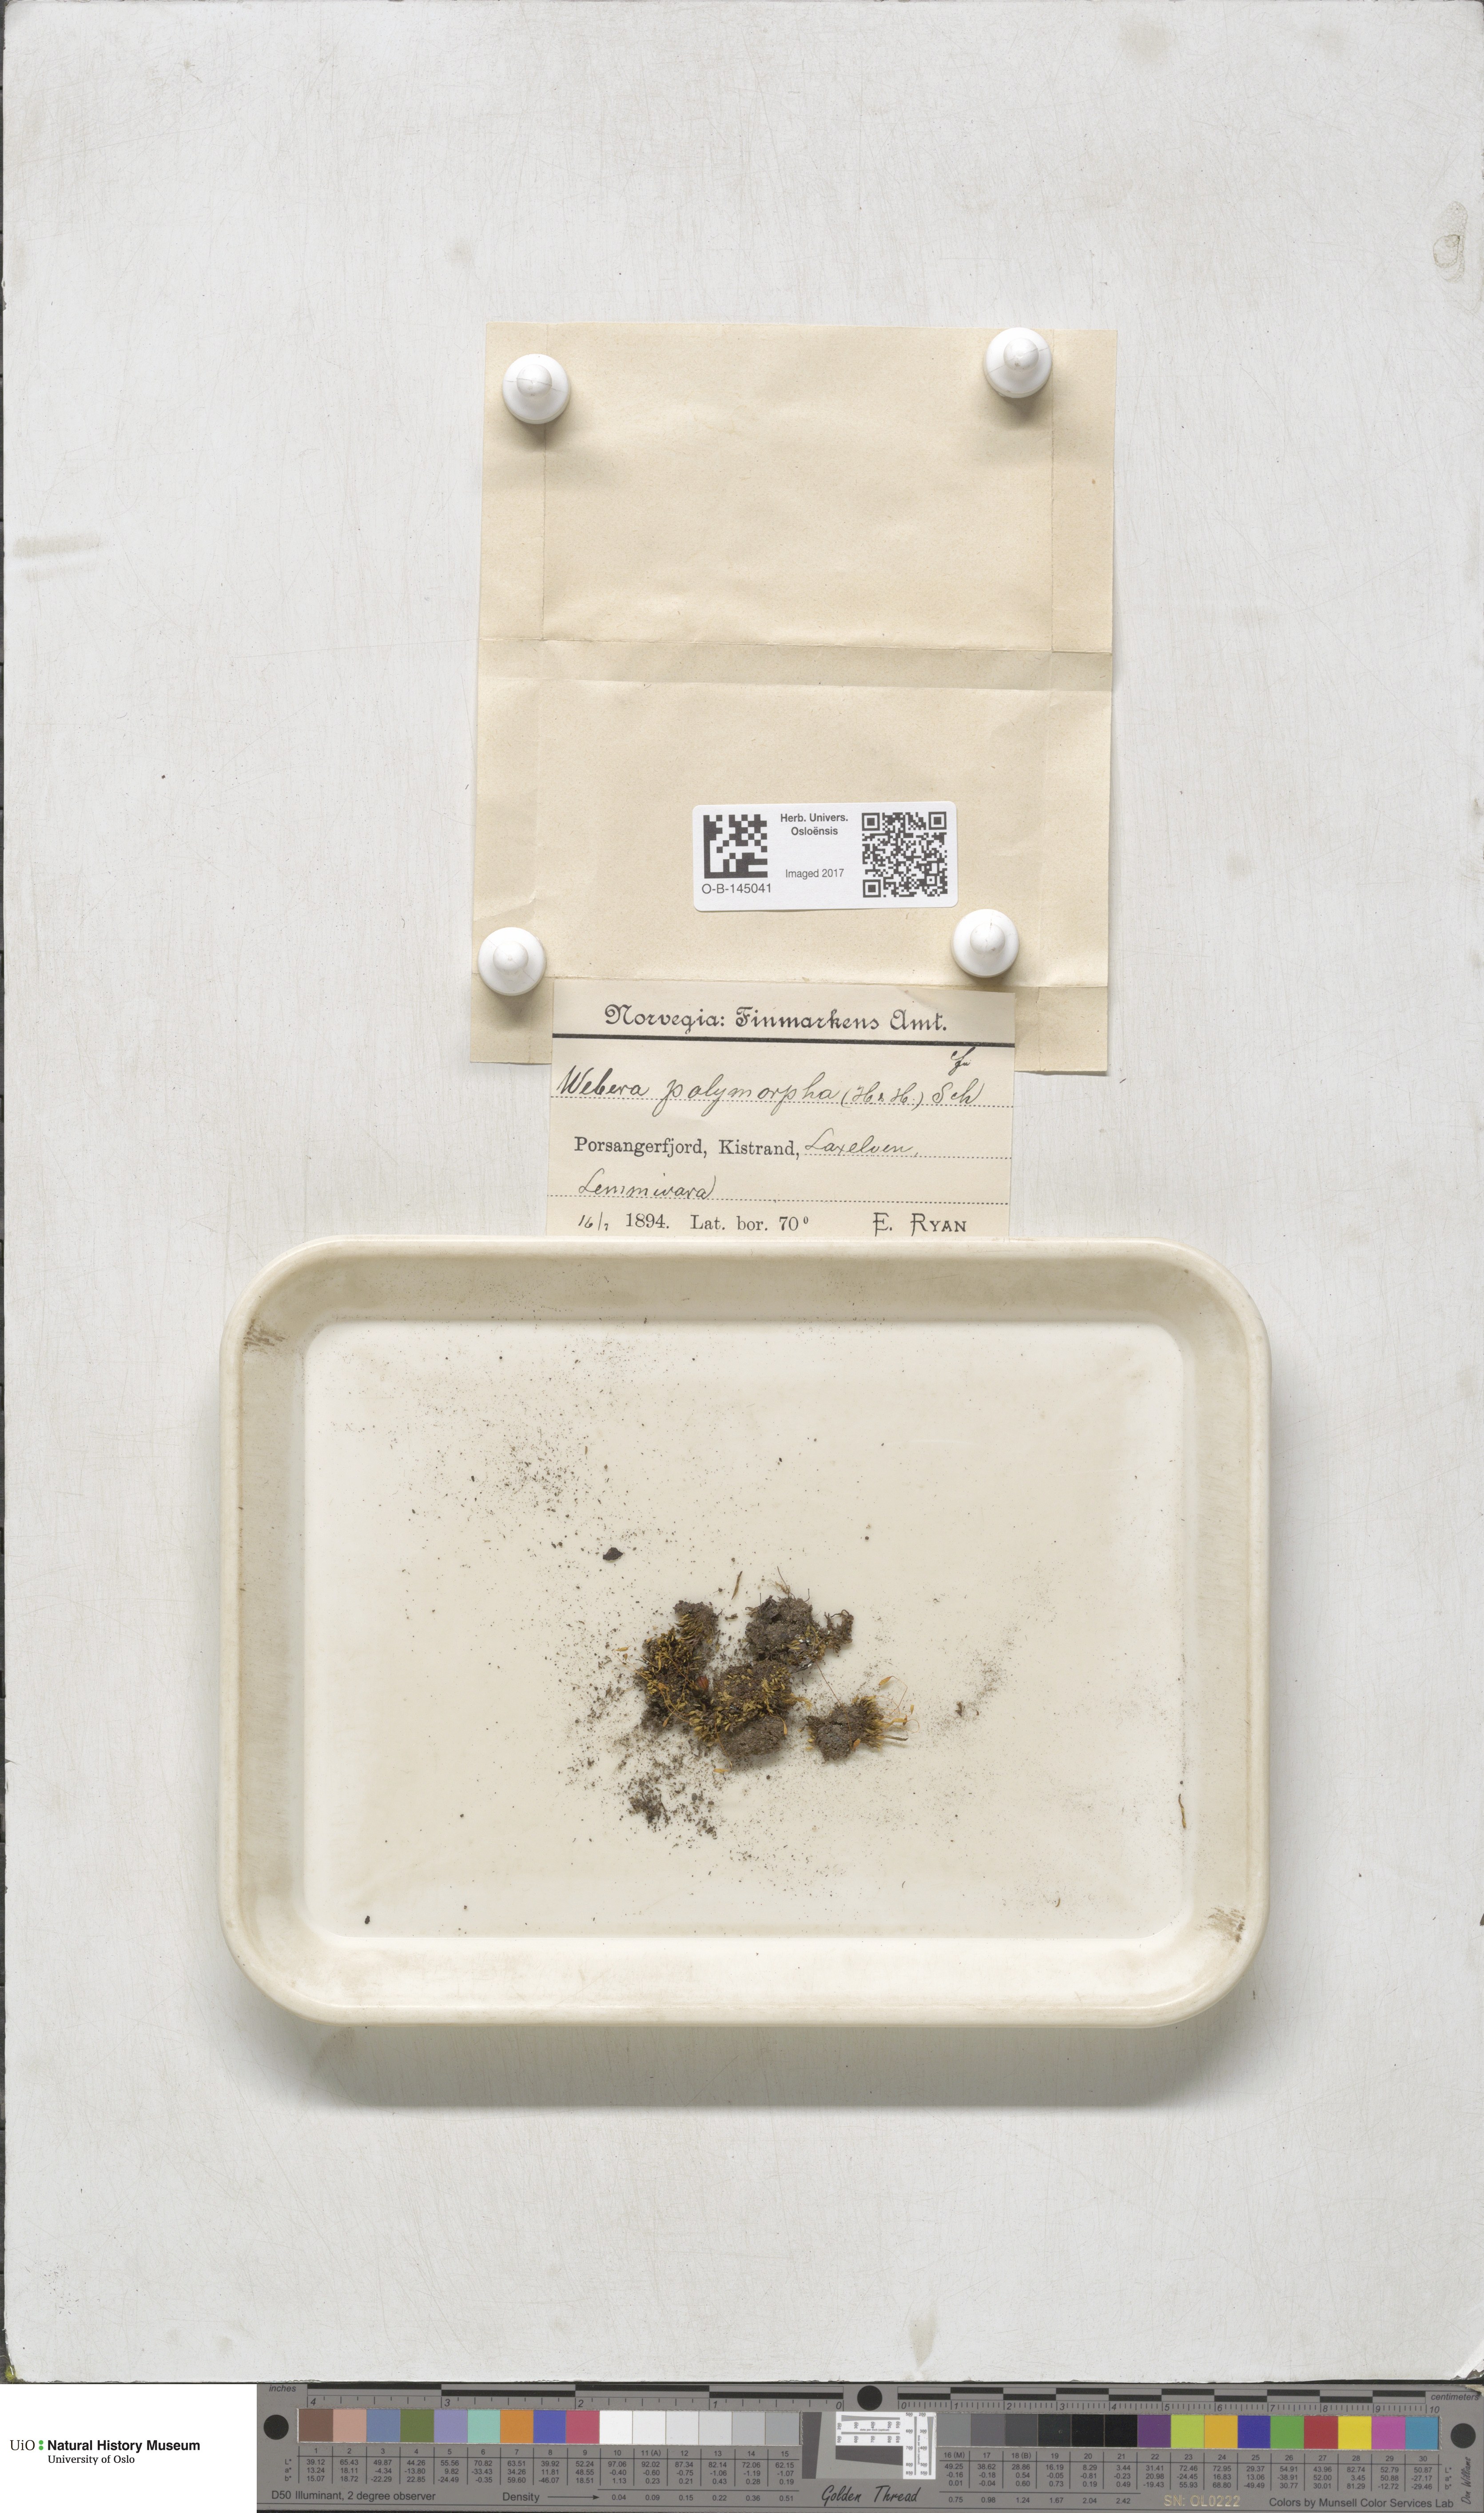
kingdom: Plantae
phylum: Bryophyta
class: Bryopsida
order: Bryales
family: Mniaceae
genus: Pohlia
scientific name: Pohlia elongata
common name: Long-fruited thread-moss
